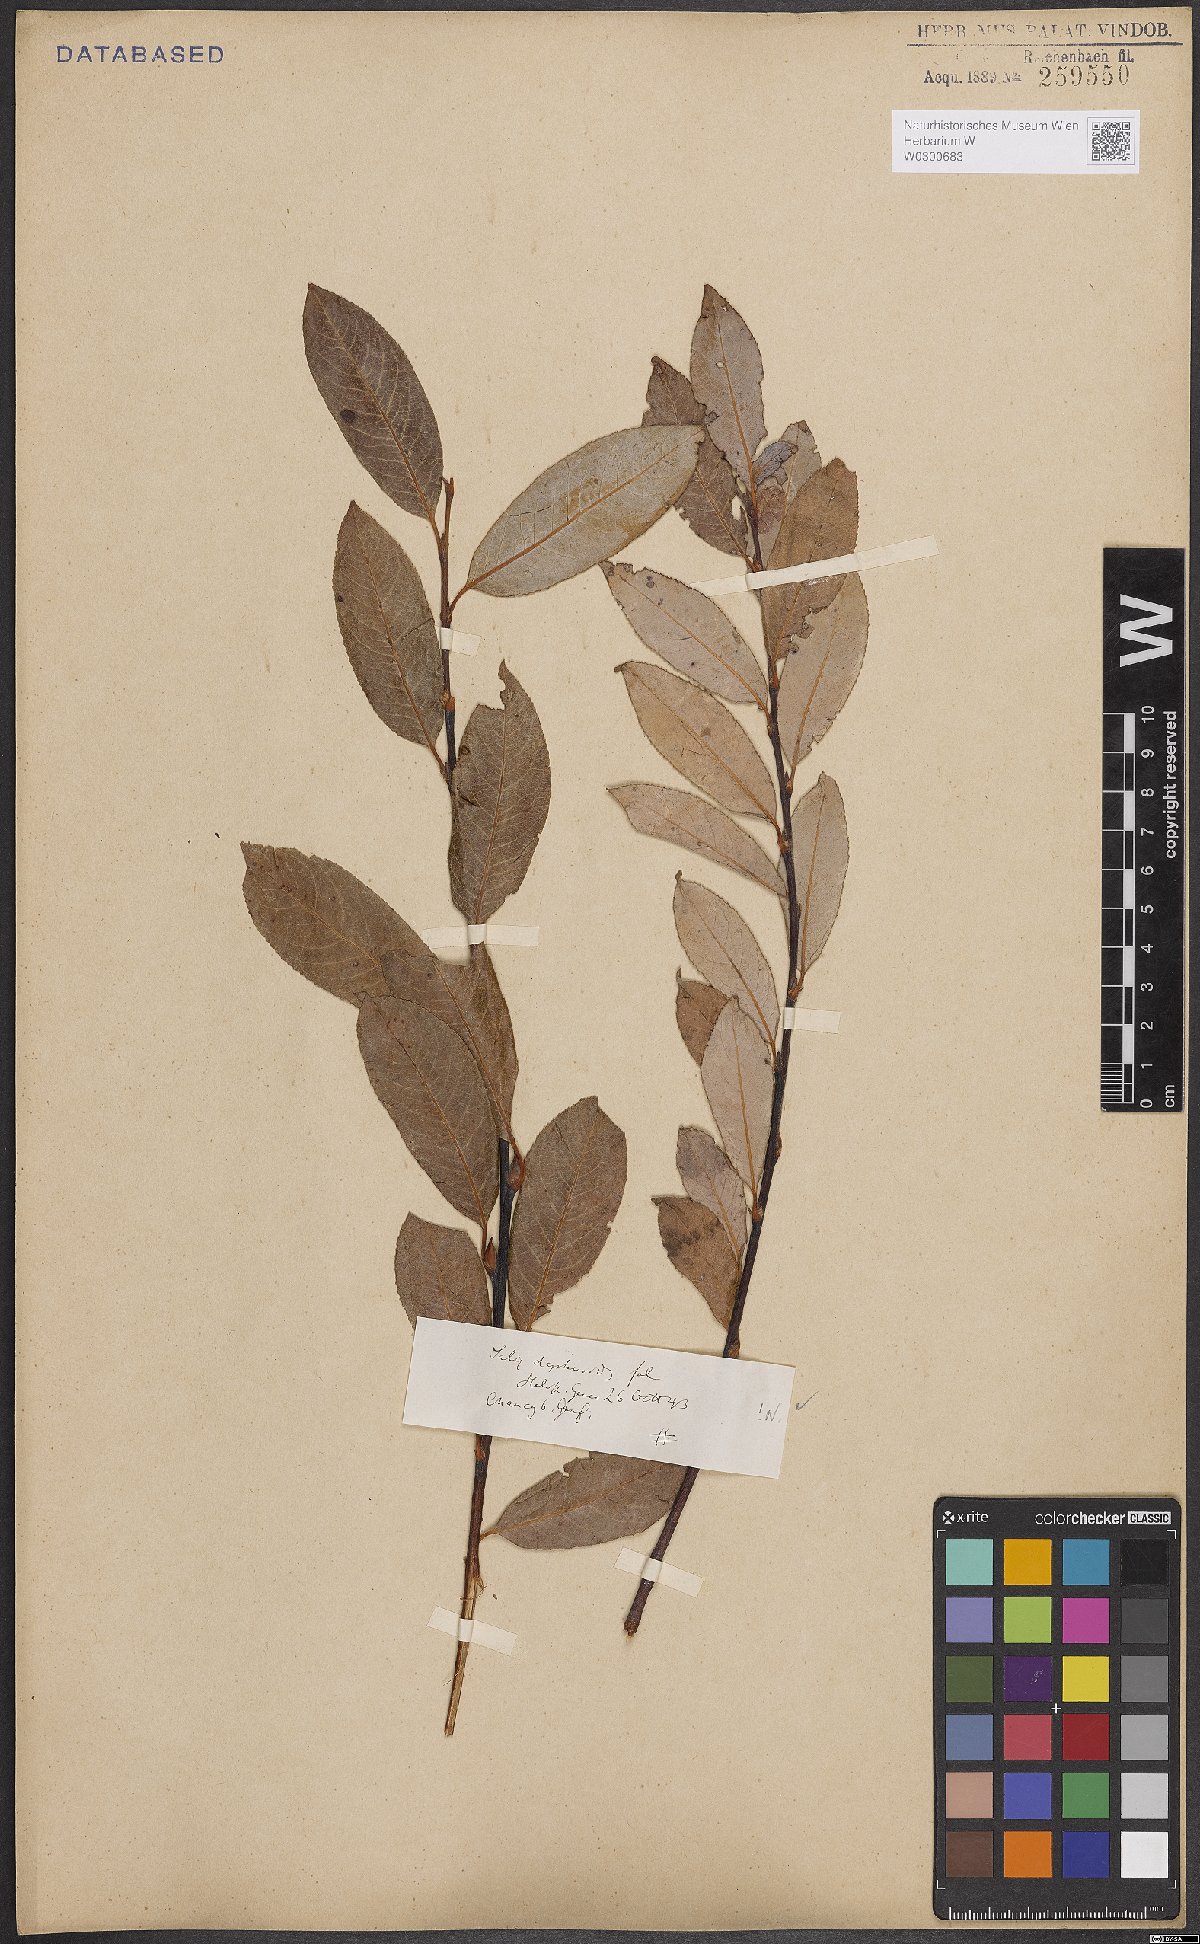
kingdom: Plantae
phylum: Tracheophyta
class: Magnoliopsida
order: Malpighiales
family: Salicaceae
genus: Salix
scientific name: Salix daphnoides
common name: European violet-willow
